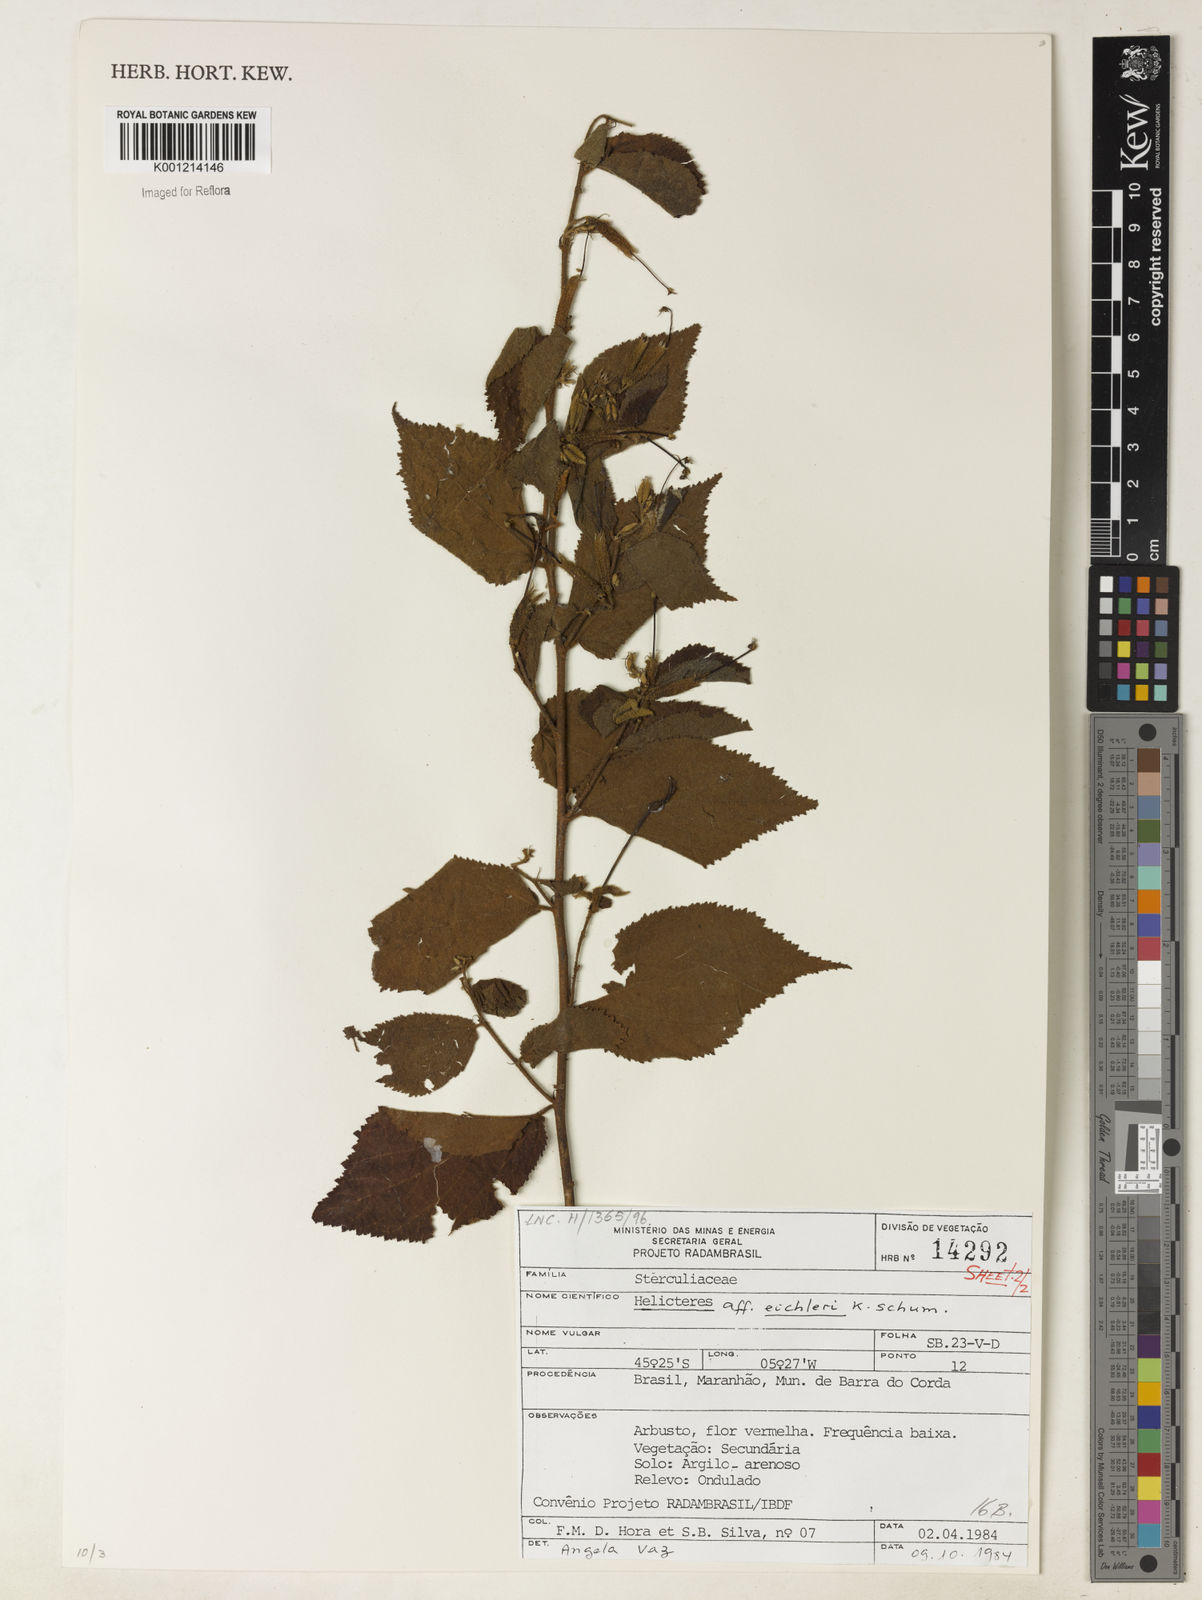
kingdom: Plantae
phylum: Tracheophyta
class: Magnoliopsida
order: Malvales
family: Malvaceae
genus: Helicteres
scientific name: Helicteres eichleri
